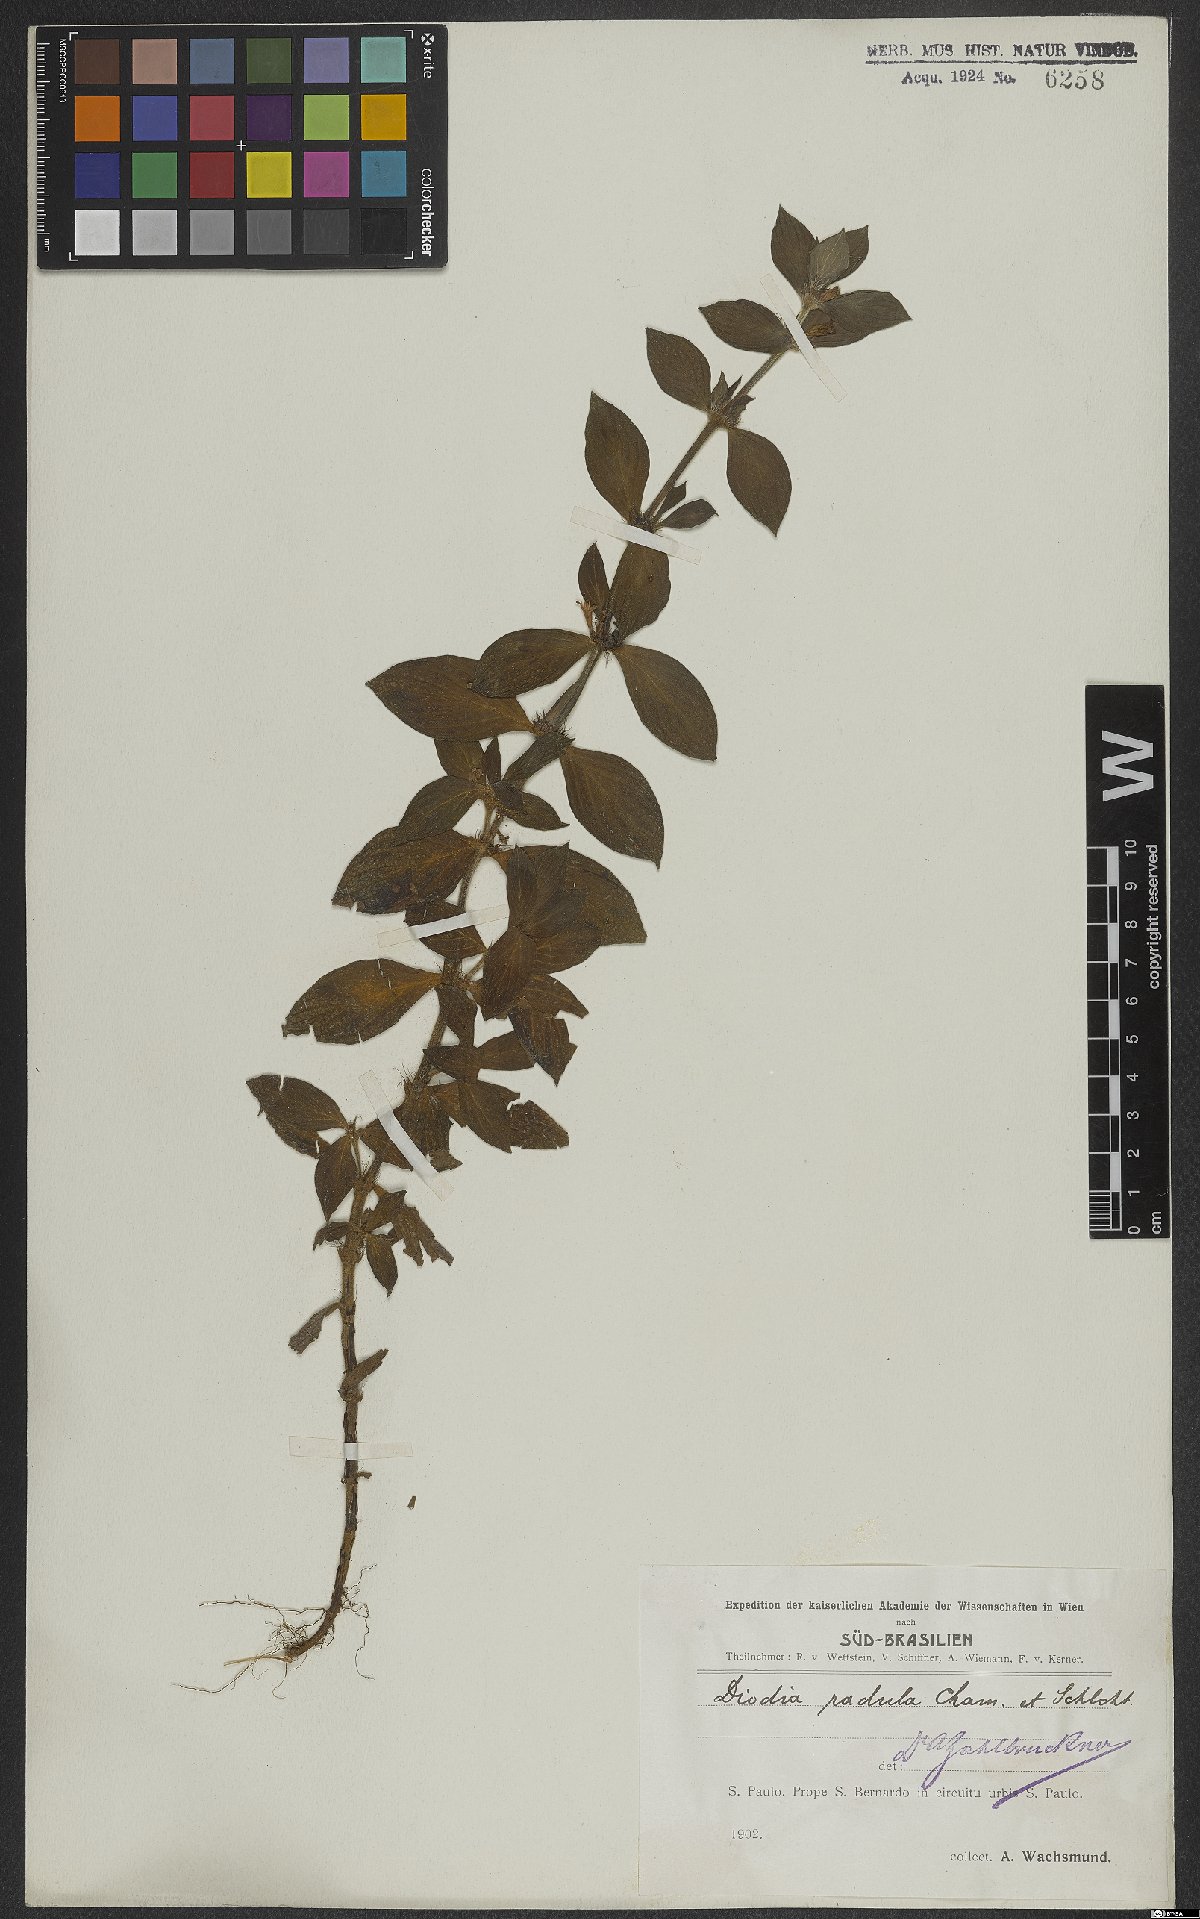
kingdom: Plantae
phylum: Tracheophyta
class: Magnoliopsida
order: Gentianales
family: Rubiaceae
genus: Hexasepalum
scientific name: Hexasepalum radulum
